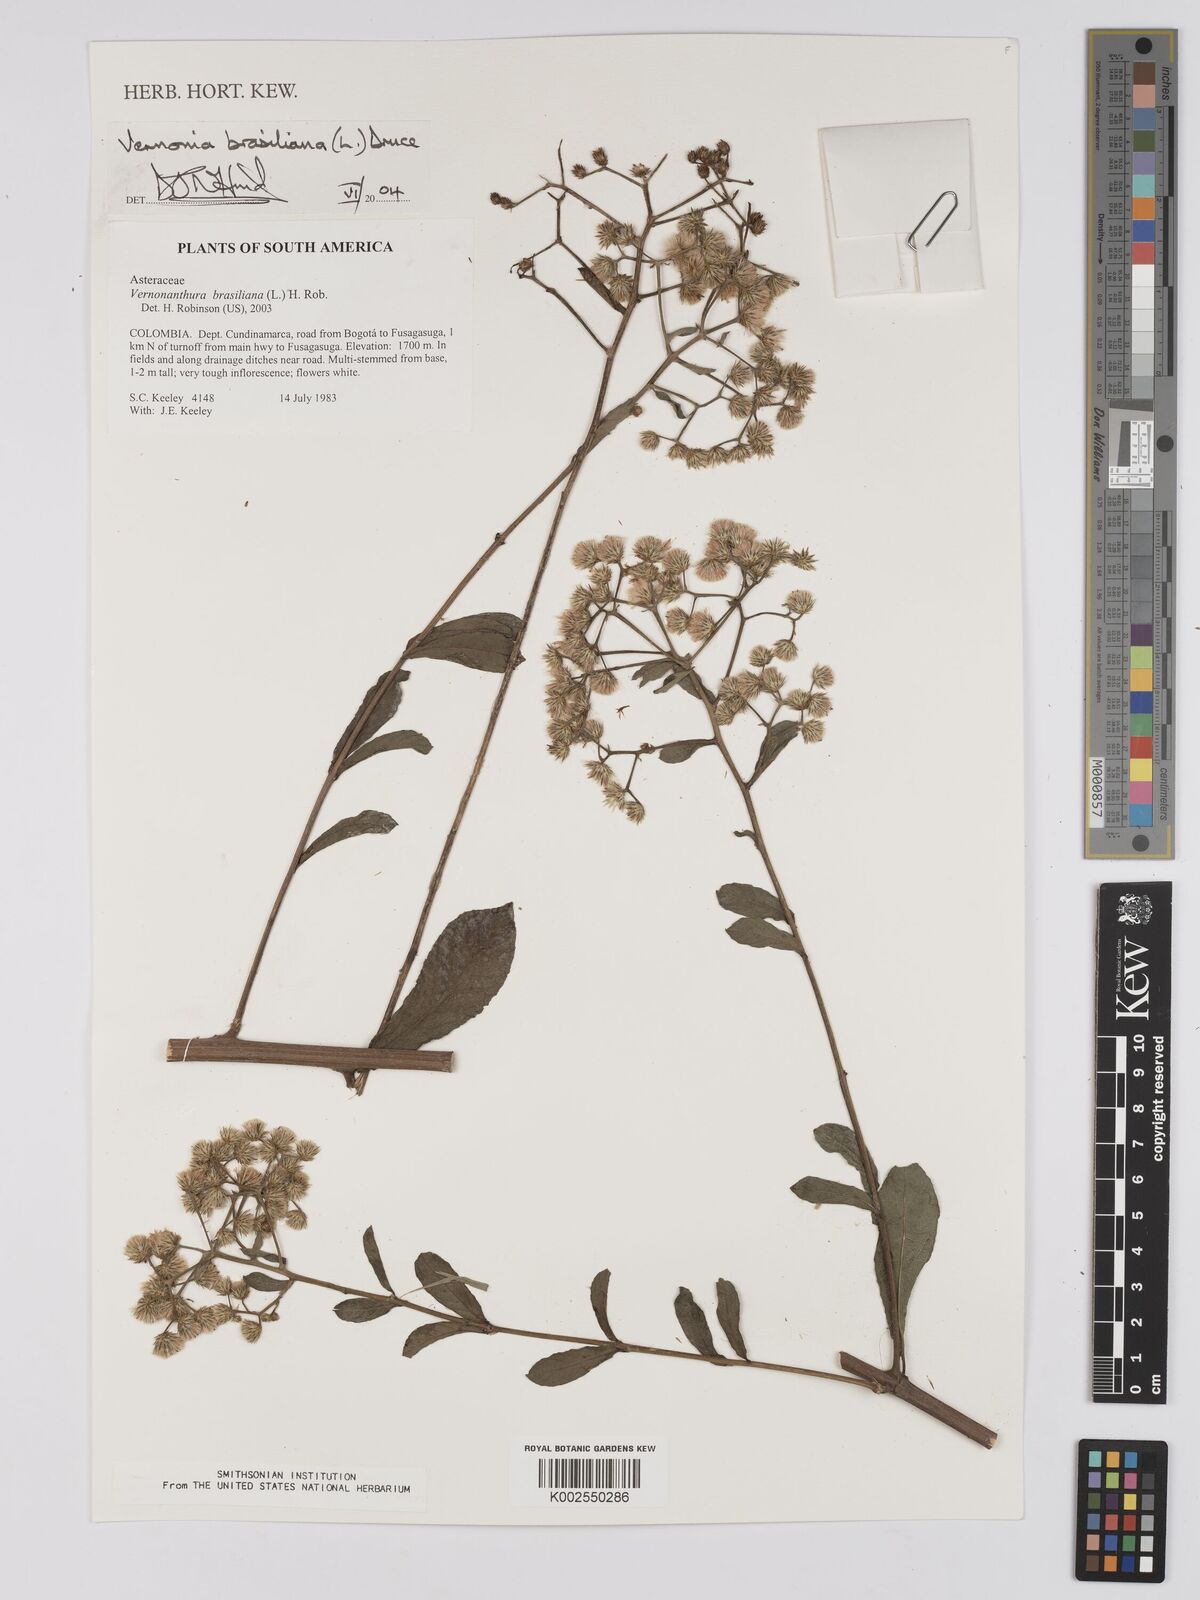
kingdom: Plantae
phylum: Tracheophyta
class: Magnoliopsida
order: Asterales
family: Asteraceae
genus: Vernonanthura
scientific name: Vernonanthura brasiliana
